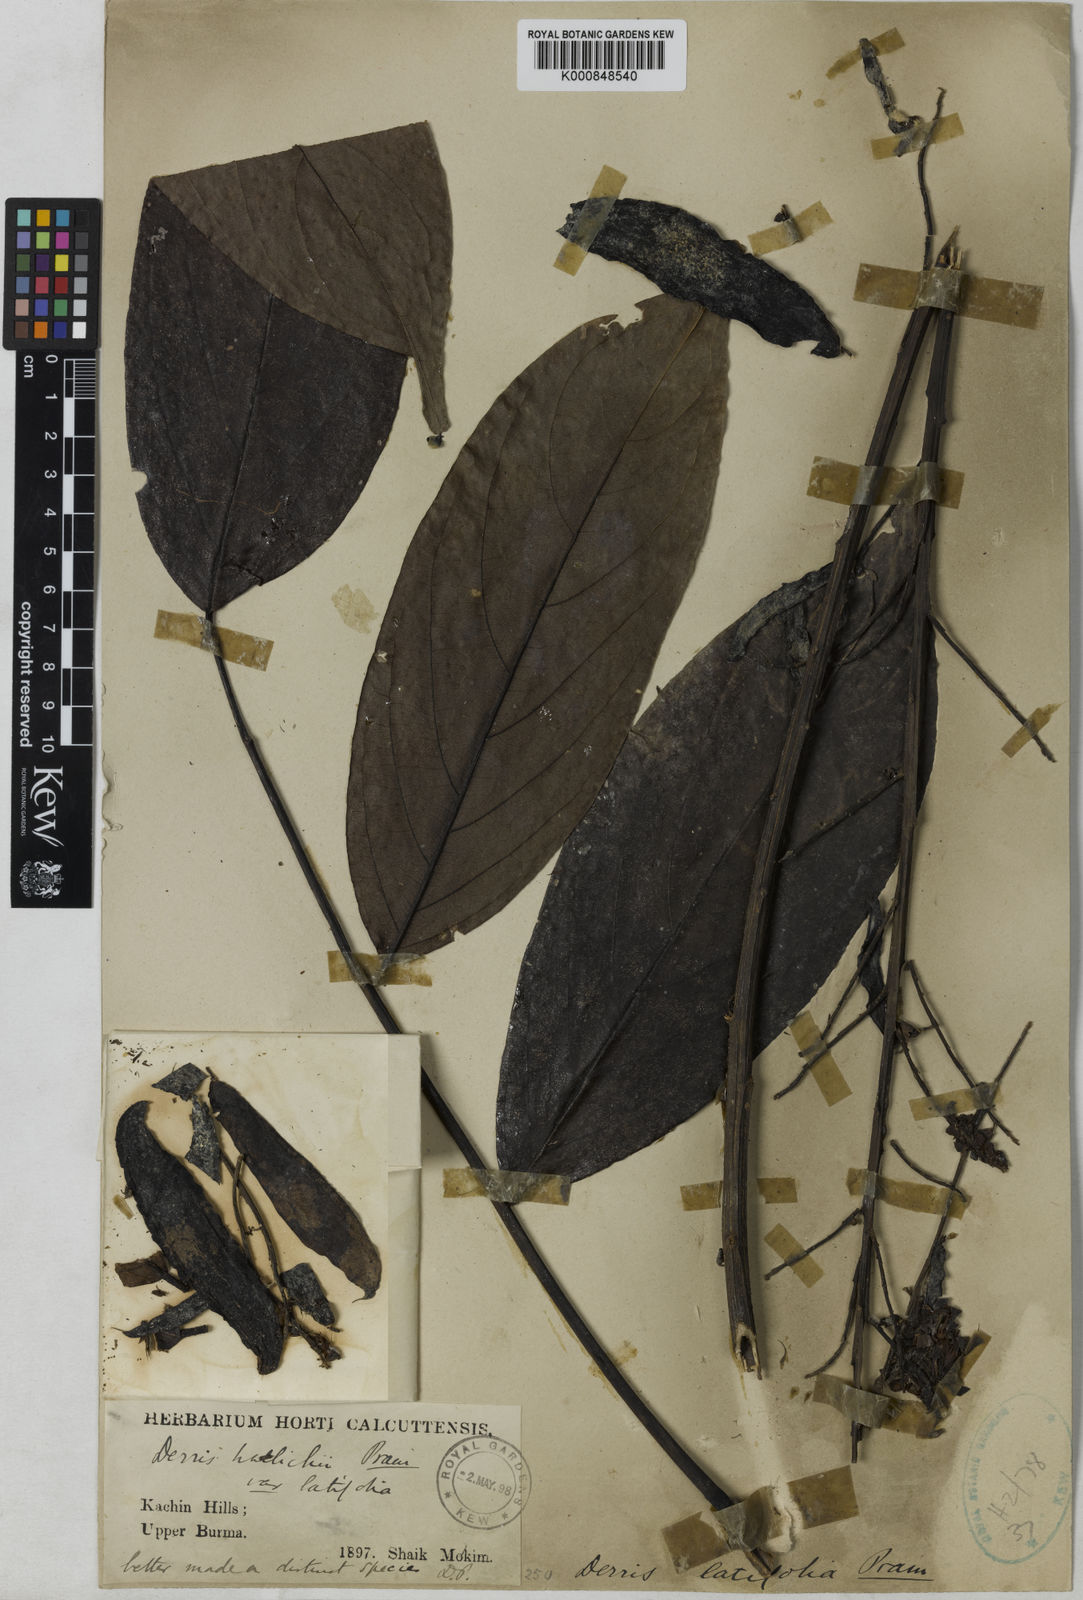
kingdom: Plantae
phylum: Tracheophyta
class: Magnoliopsida
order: Fabales
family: Fabaceae
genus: Aganope
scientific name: Aganope thyrsiflora
